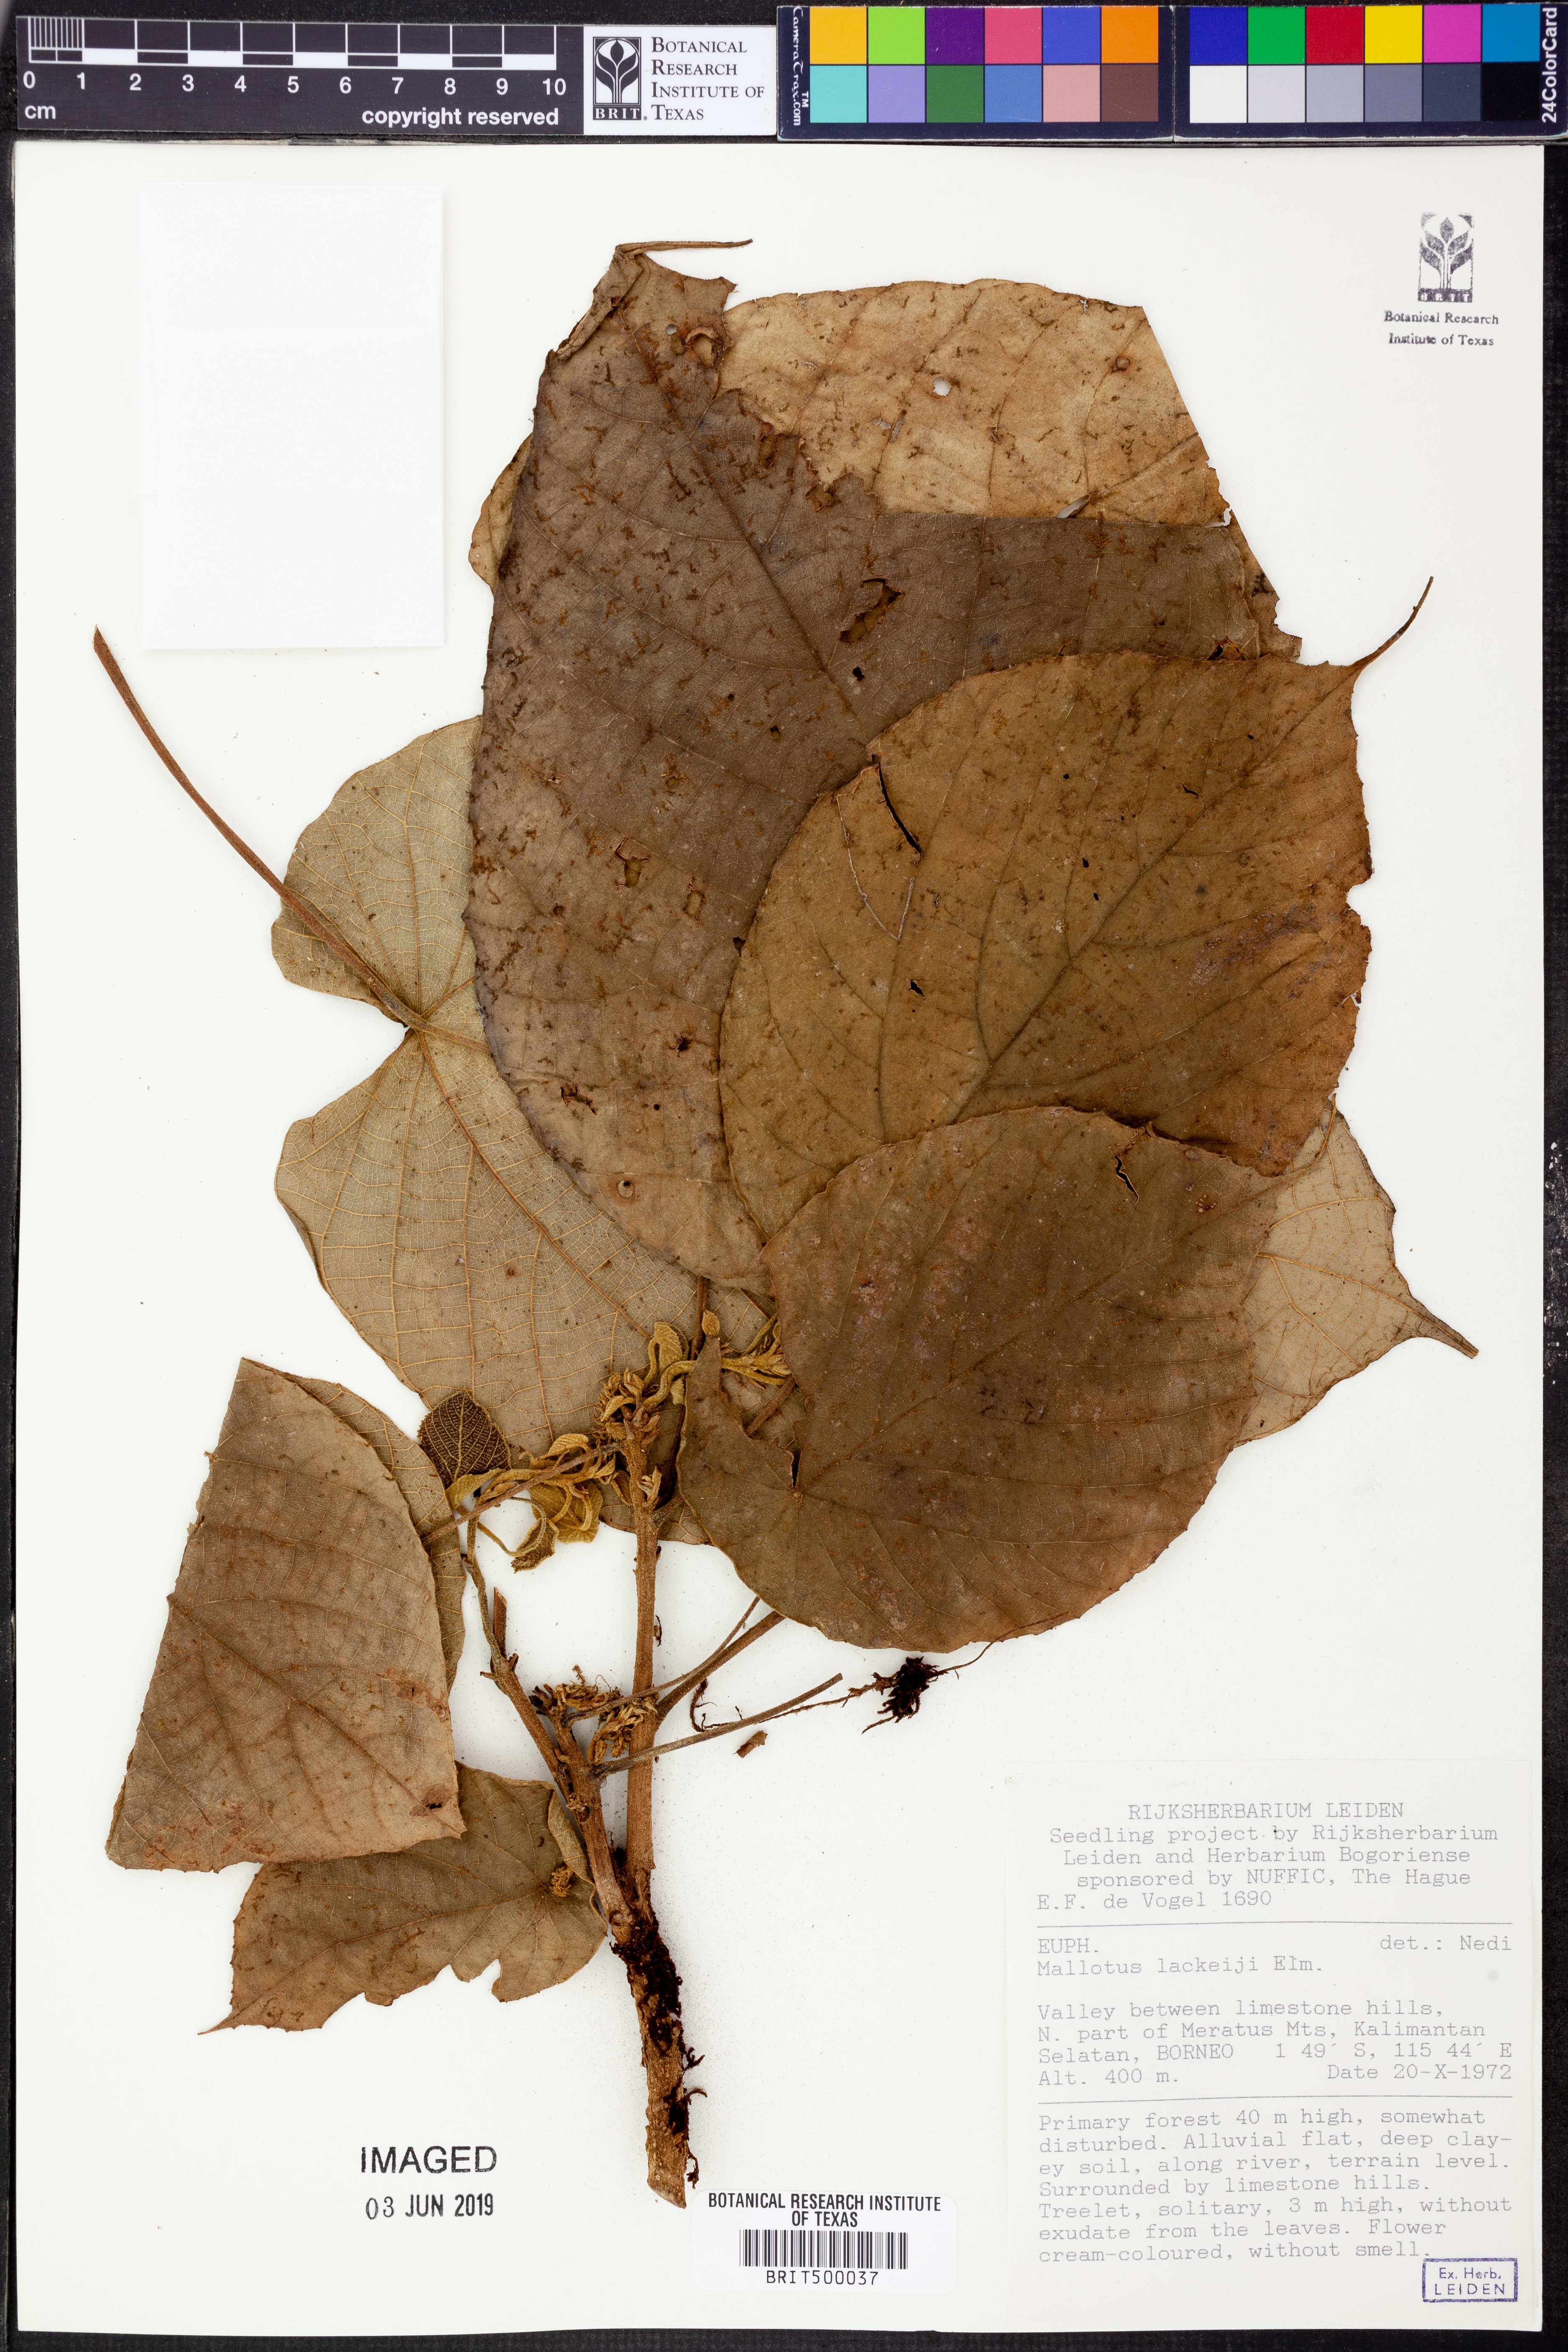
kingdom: Plantae
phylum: Tracheophyta
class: Magnoliopsida
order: Malpighiales
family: Euphorbiaceae
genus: Mallotus
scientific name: Mallotus lackeyi
